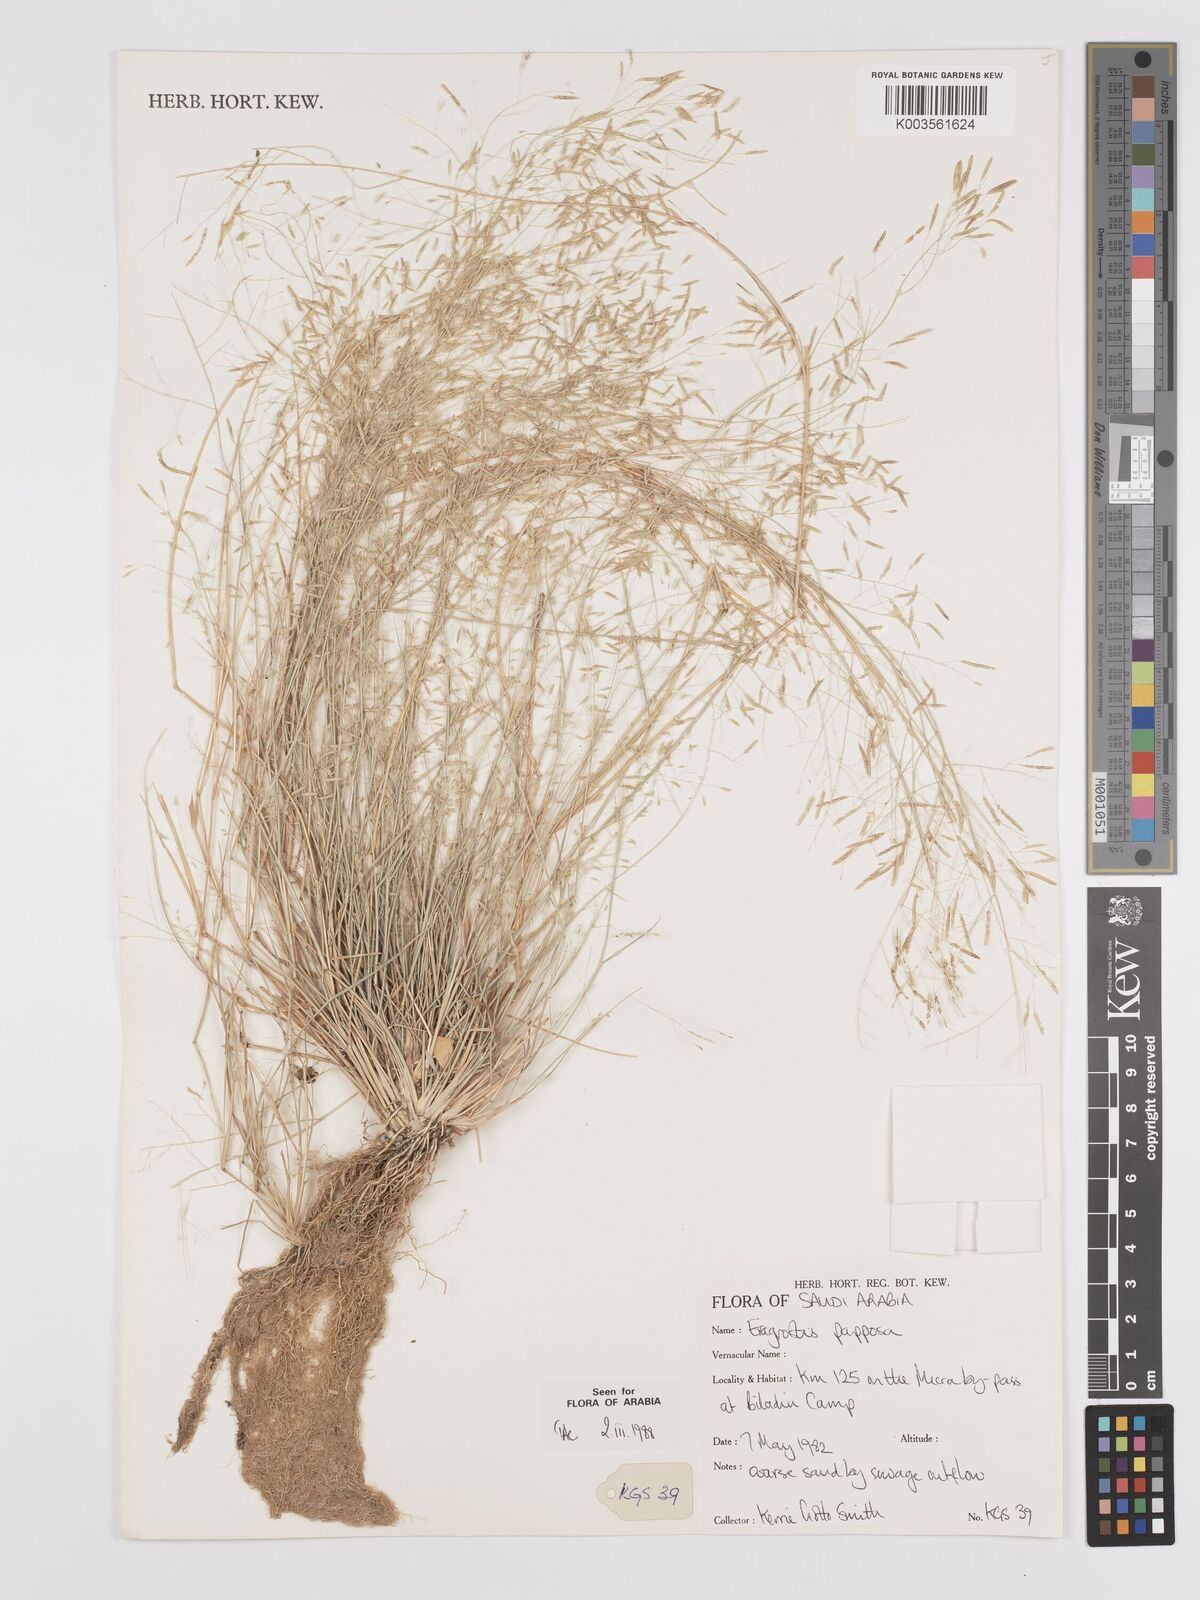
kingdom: Plantae
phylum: Tracheophyta
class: Liliopsida
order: Poales
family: Poaceae
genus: Eragrostis
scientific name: Eragrostis papposa
